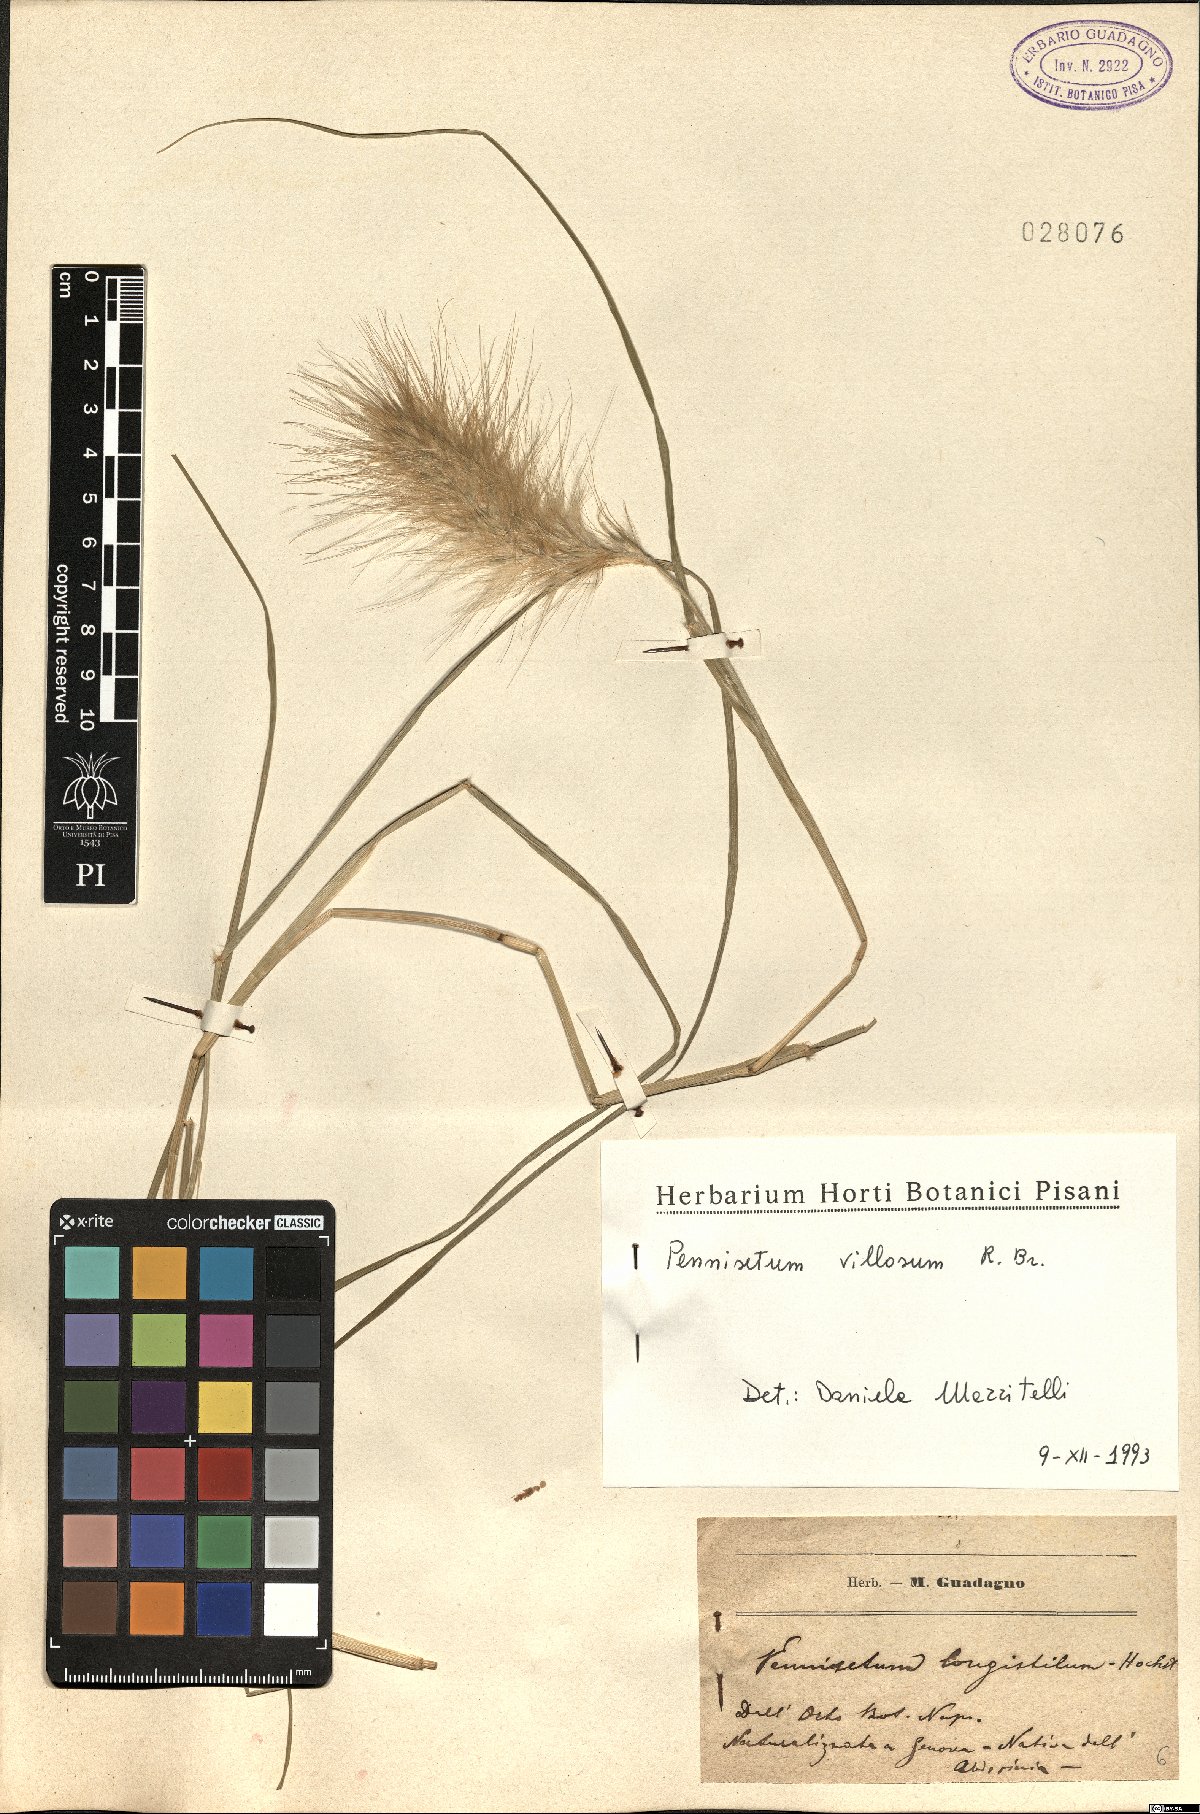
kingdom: Plantae
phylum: Tracheophyta
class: Liliopsida
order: Poales
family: Poaceae
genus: Cenchrus
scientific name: Cenchrus longisetus
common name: Feathertop
